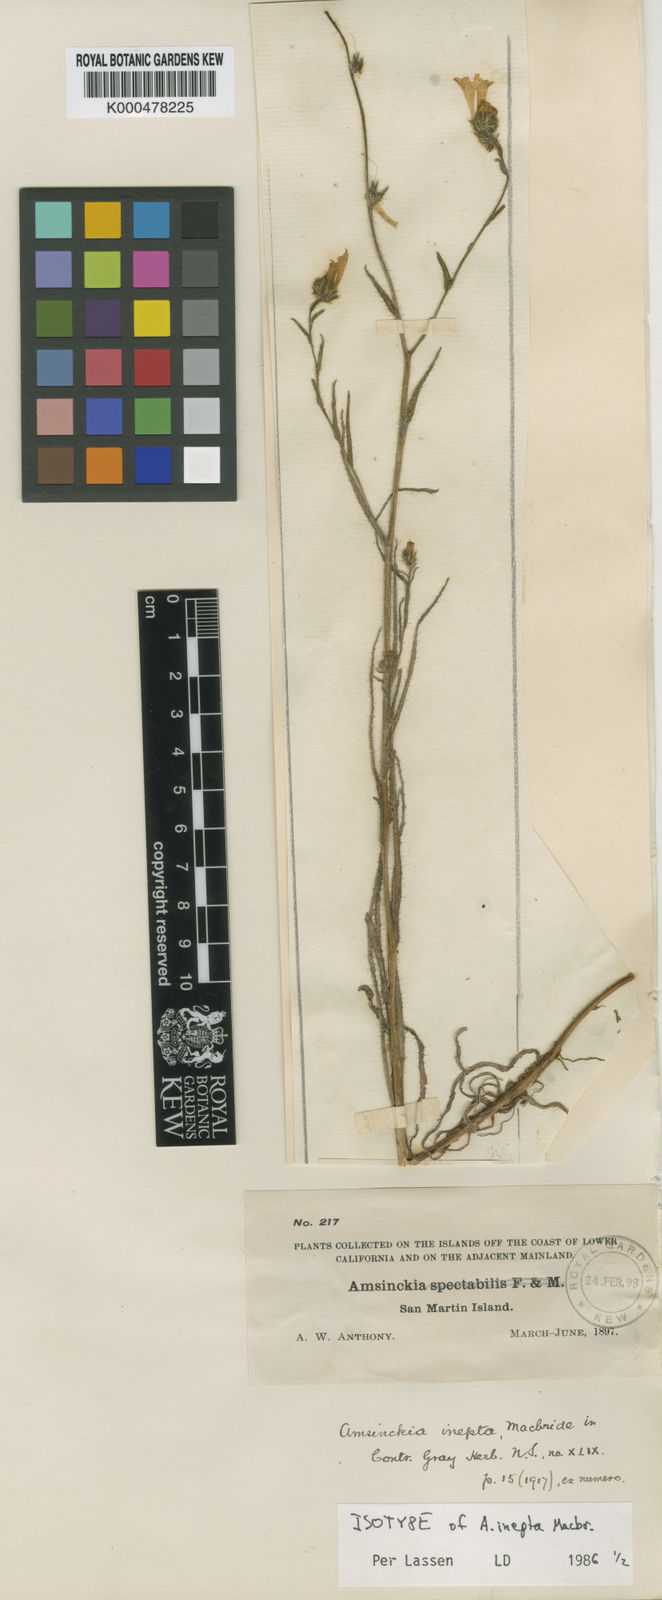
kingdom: Plantae
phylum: Tracheophyta
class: Magnoliopsida
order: Boraginales
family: Boraginaceae
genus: Amsinckia
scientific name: Amsinckia inepta
